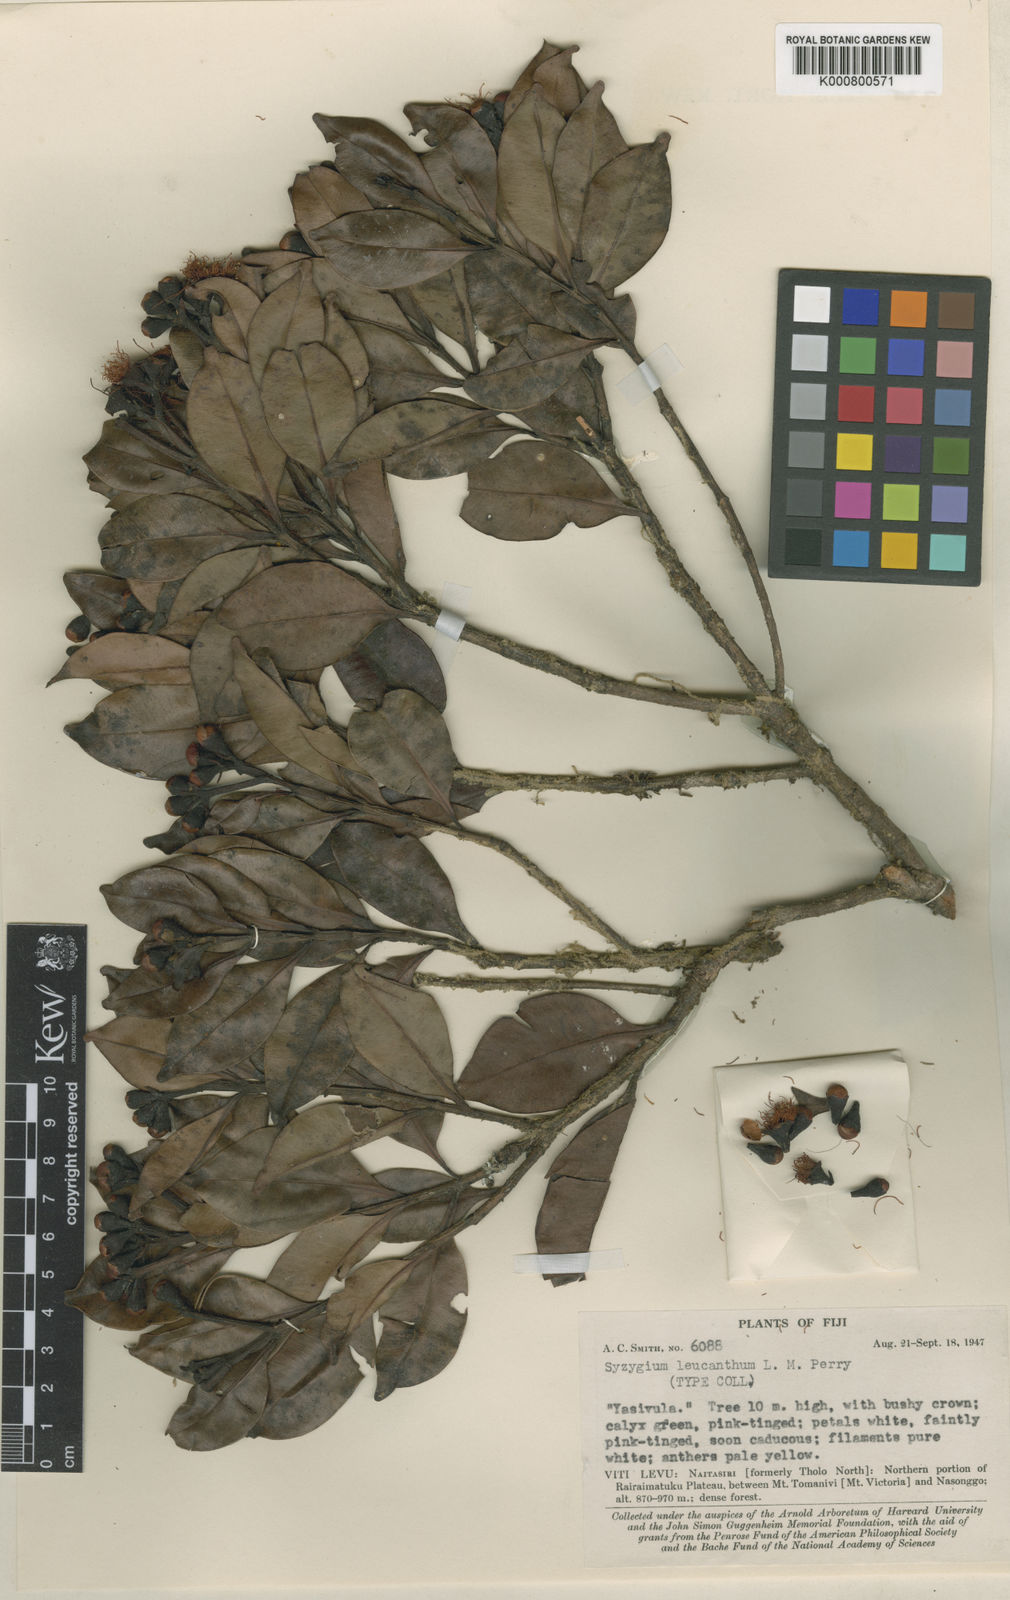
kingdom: Plantae
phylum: Tracheophyta
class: Magnoliopsida
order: Myrtales
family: Myrtaceae
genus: Syzygium
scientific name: Syzygium leucanthum
